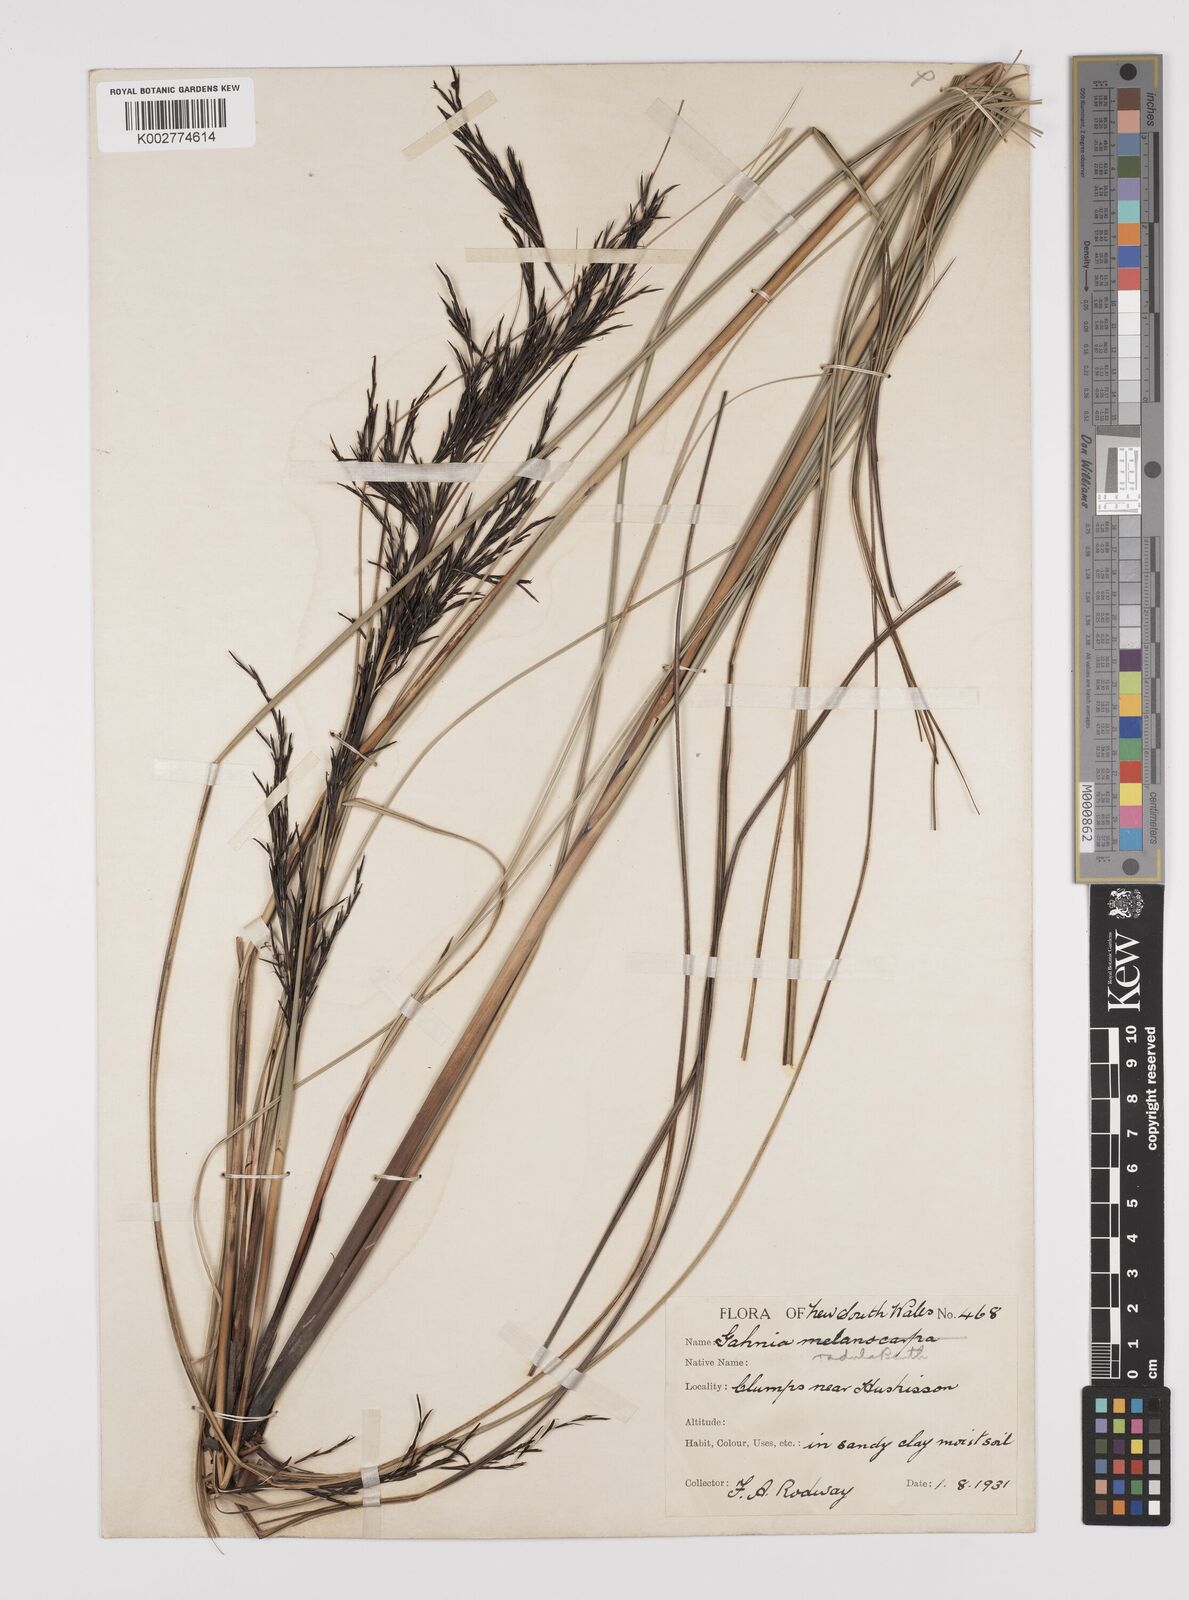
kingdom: Plantae
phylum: Tracheophyta
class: Liliopsida
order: Poales
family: Cyperaceae
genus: Gahnia
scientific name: Gahnia radula
